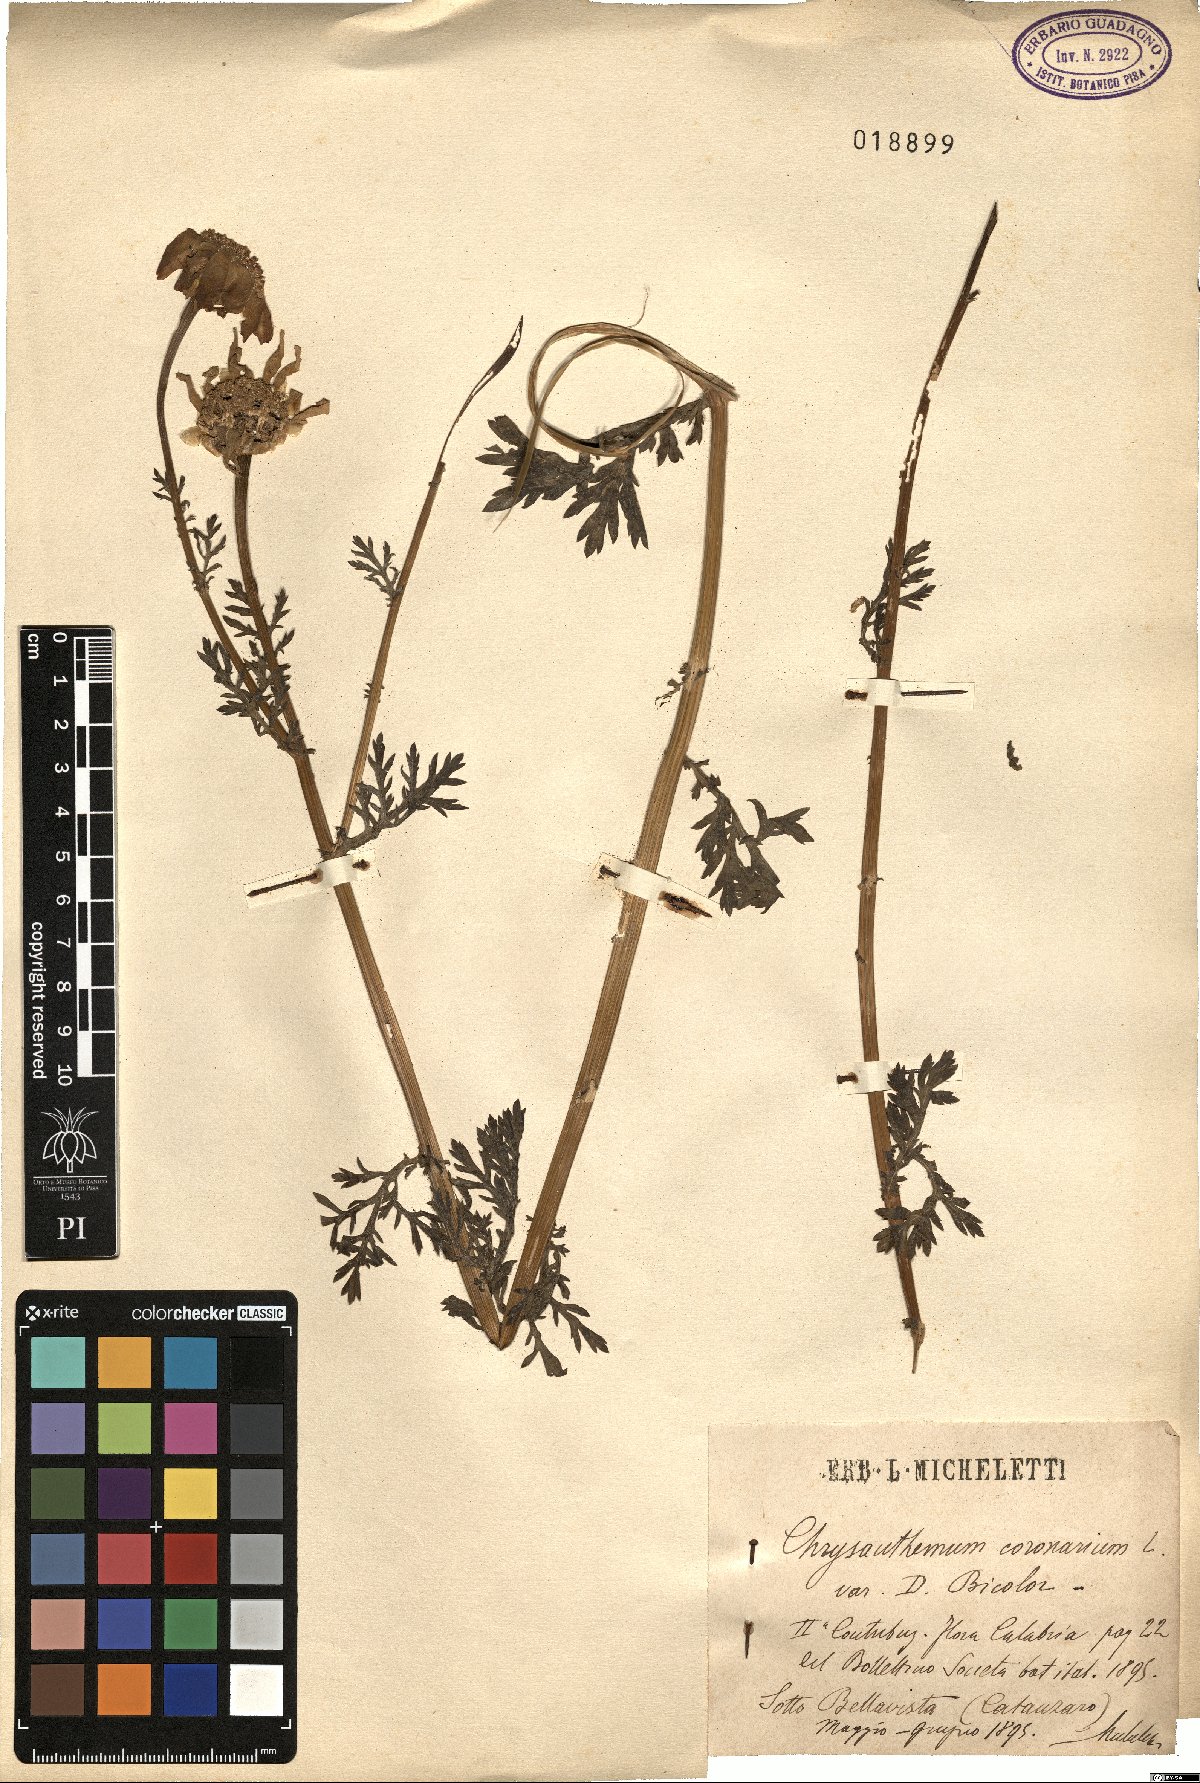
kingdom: Plantae
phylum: Tracheophyta
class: Magnoliopsida
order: Asterales
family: Asteraceae
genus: Glebionis
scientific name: Glebionis coronaria
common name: Crowndaisy
